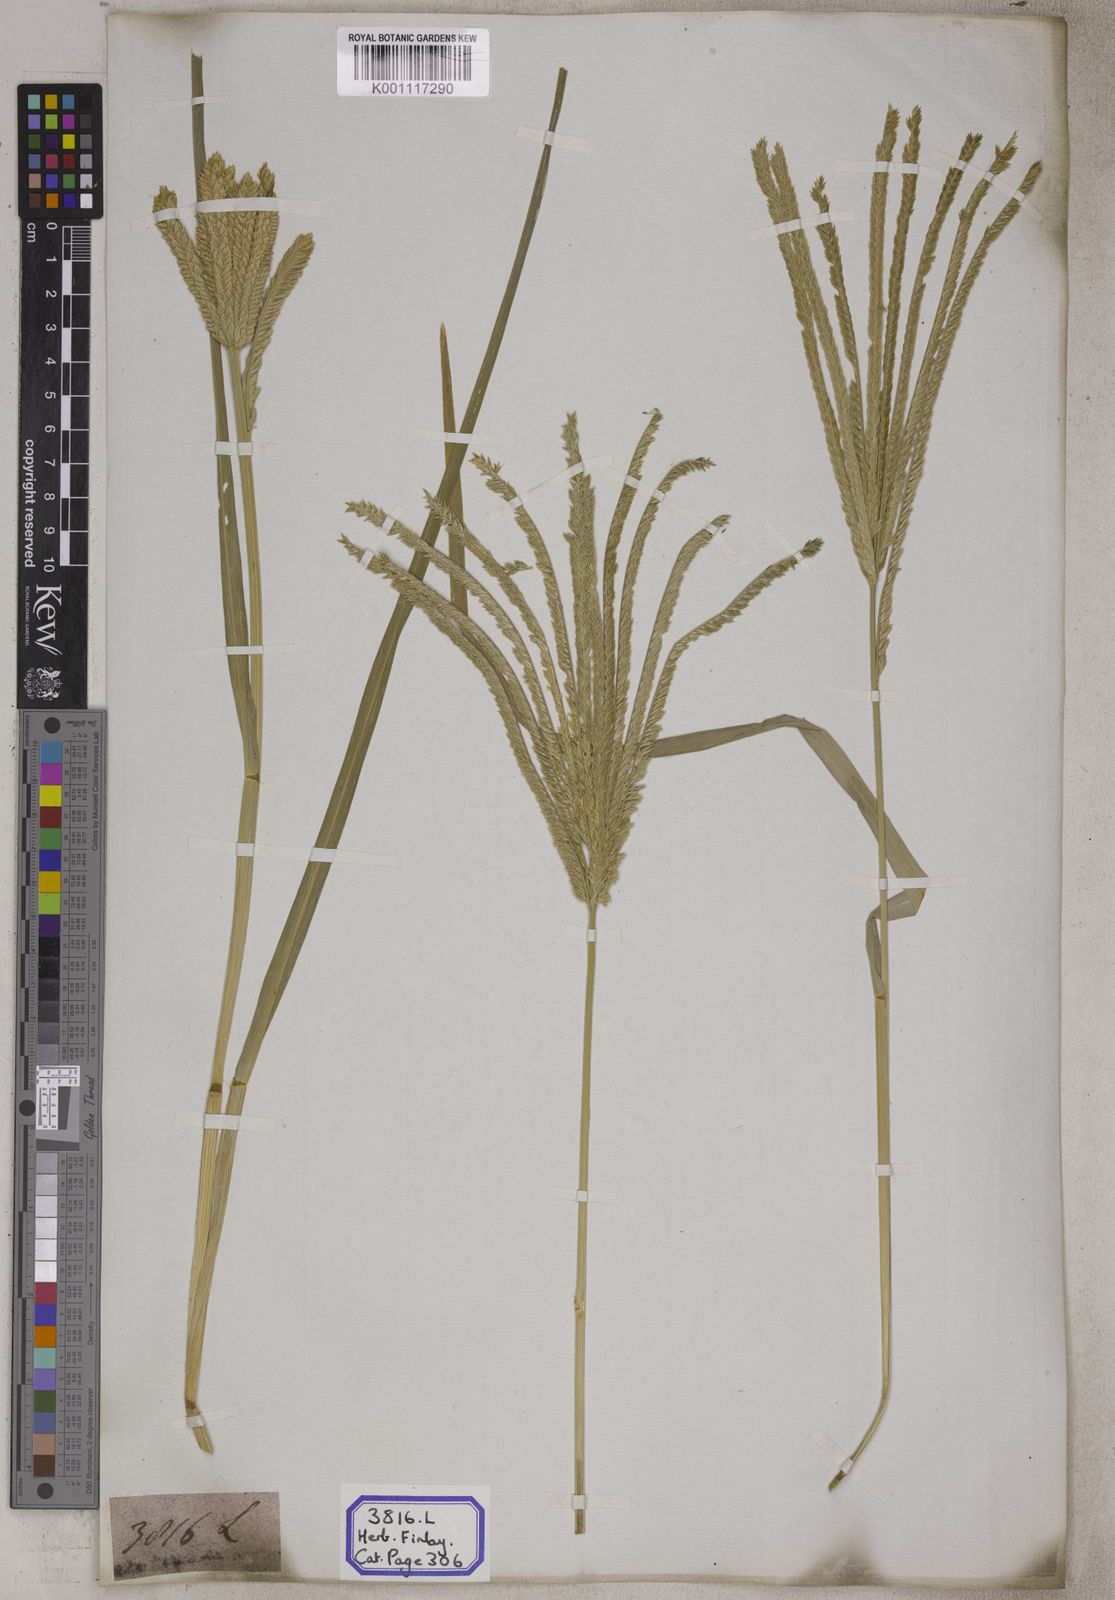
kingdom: Plantae
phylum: Tracheophyta
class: Liliopsida
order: Poales
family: Poaceae
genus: Eleusine
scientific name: Eleusine
